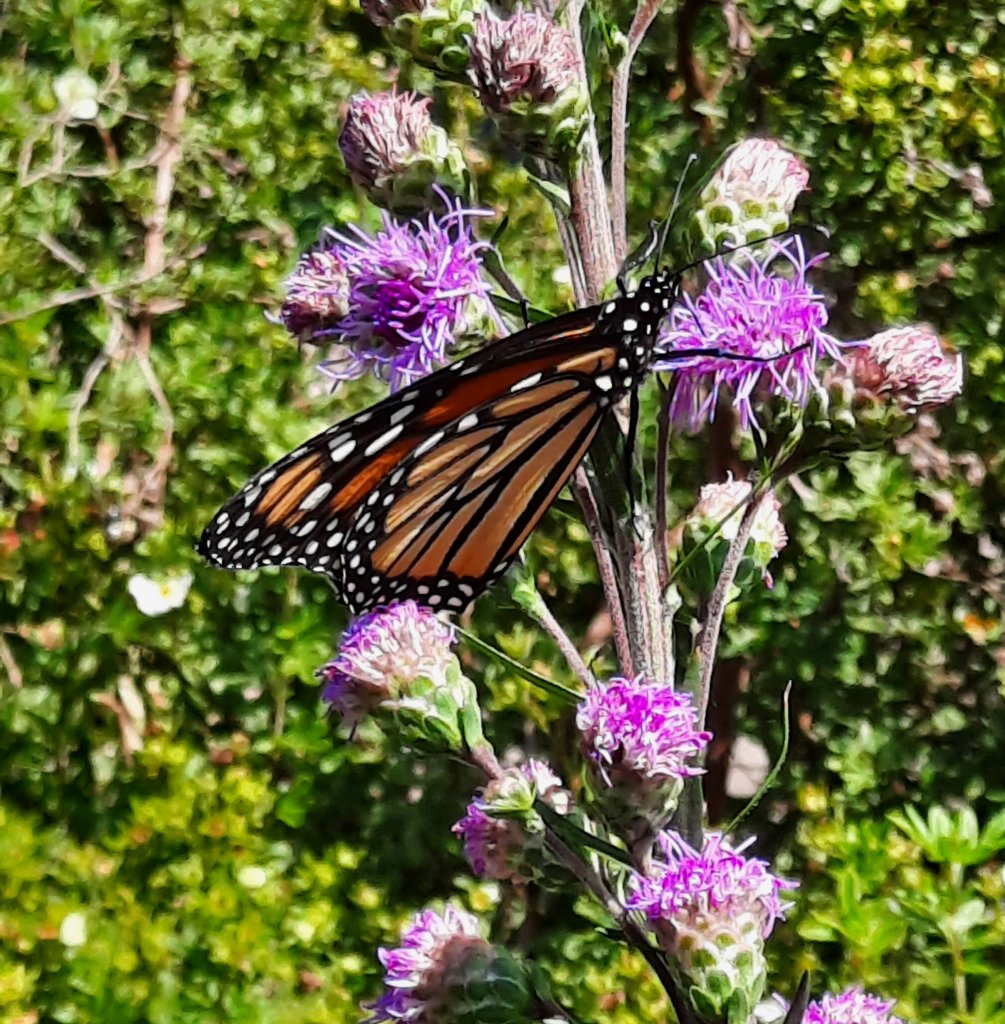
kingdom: Animalia
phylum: Arthropoda
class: Insecta
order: Lepidoptera
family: Nymphalidae
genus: Danaus
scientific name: Danaus plexippus
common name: Monarch
